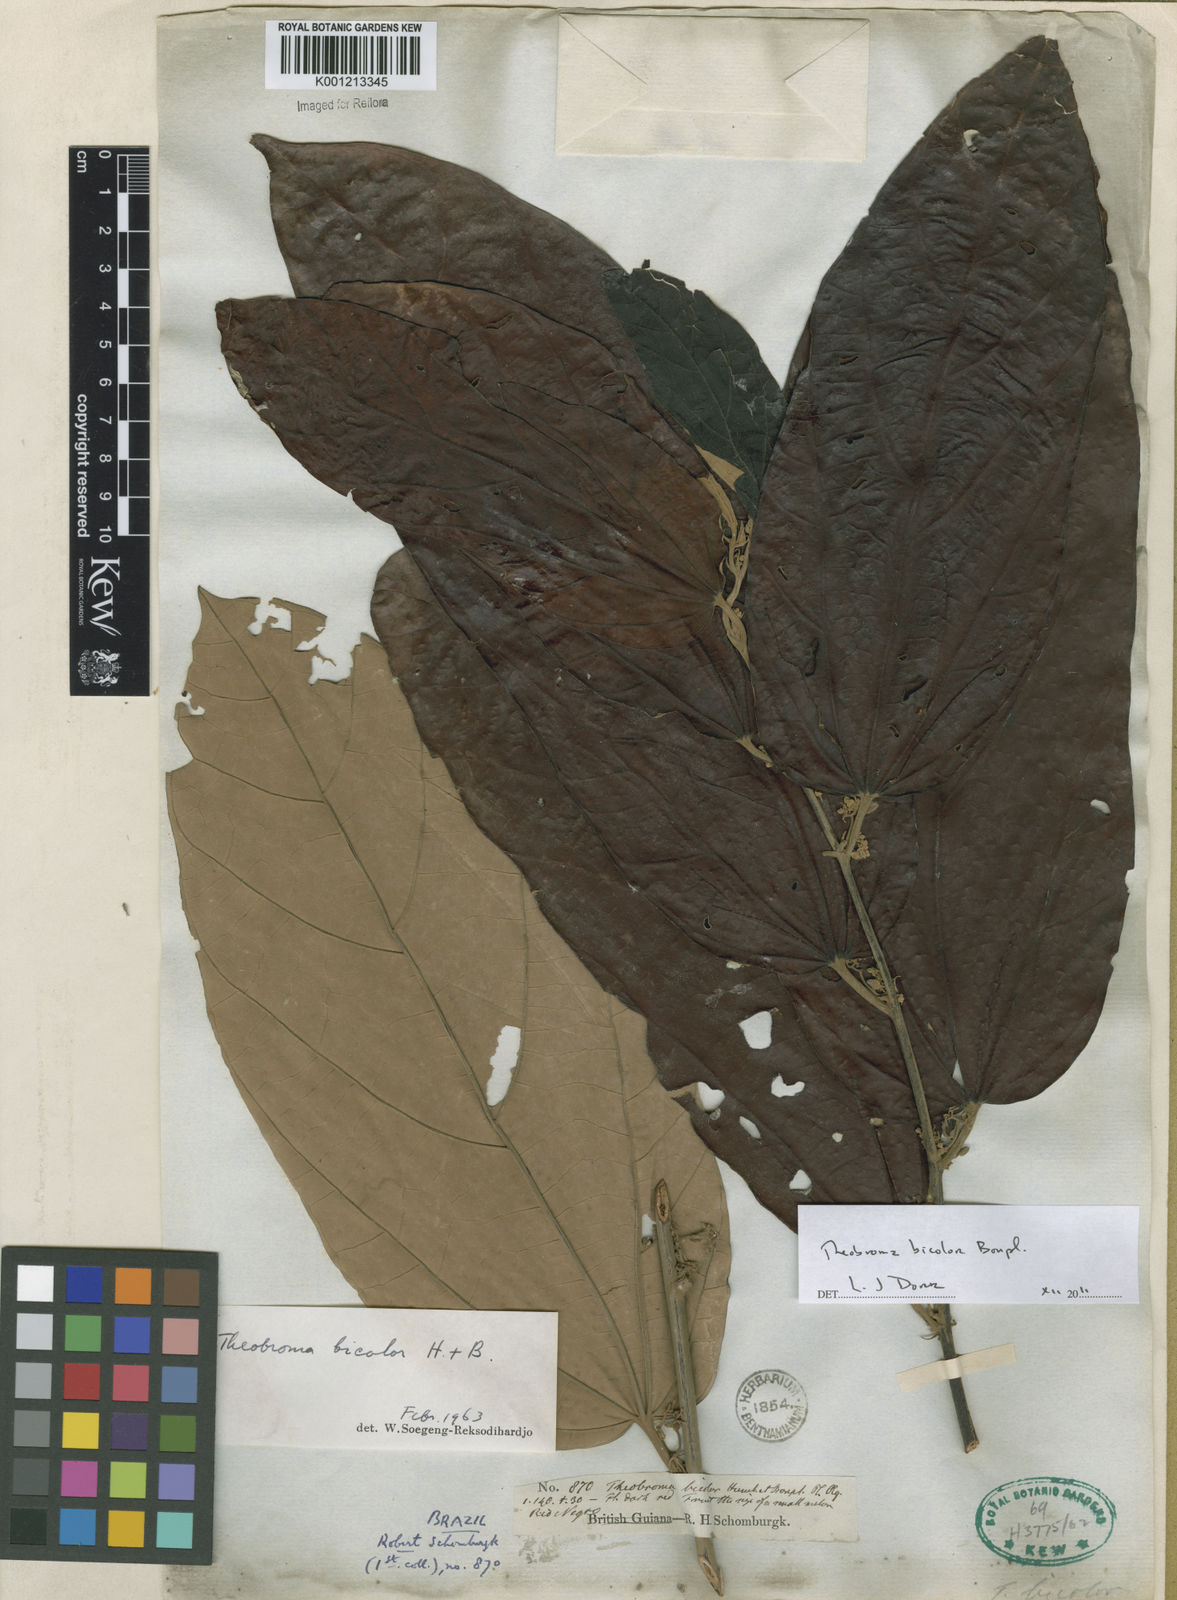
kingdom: Plantae
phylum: Tracheophyta
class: Magnoliopsida
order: Malvales
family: Malvaceae
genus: Theobroma
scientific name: Theobroma
